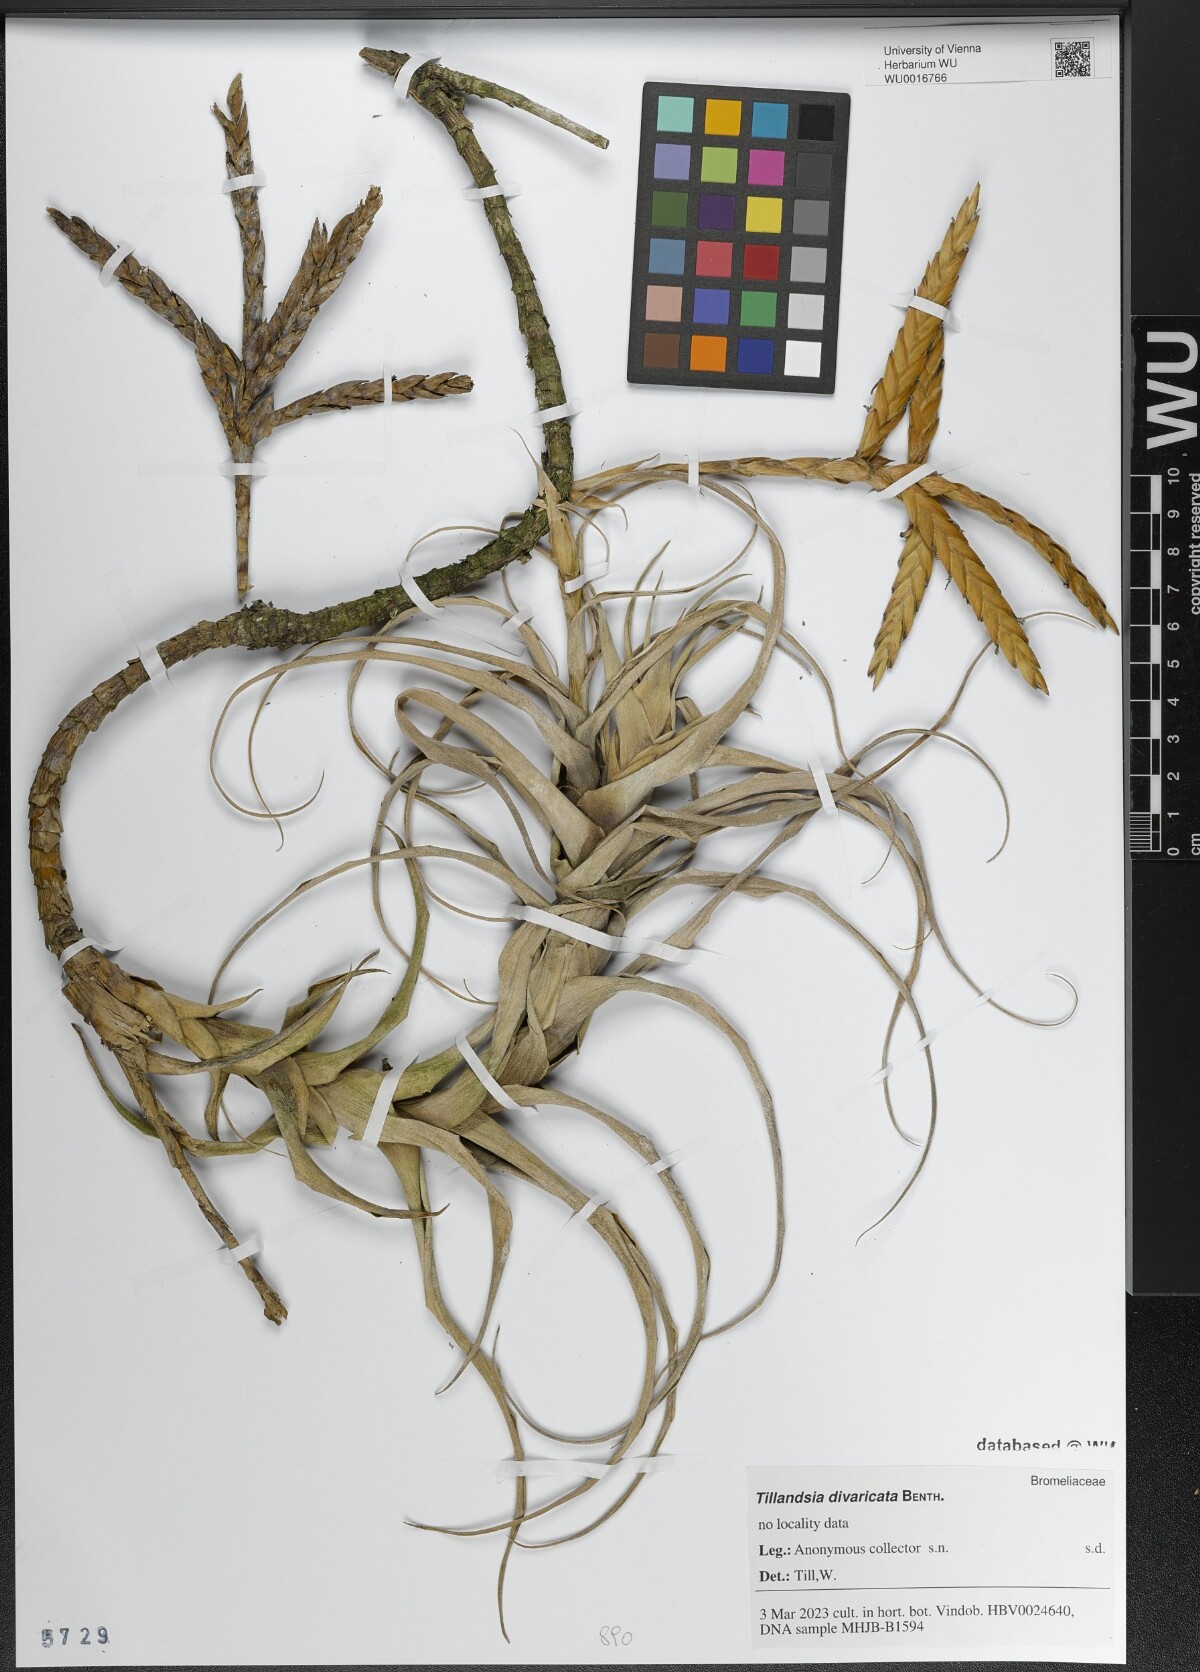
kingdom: Plantae
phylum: Tracheophyta
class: Liliopsida
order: Poales
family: Bromeliaceae
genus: Tillandsia
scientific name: Tillandsia latifolia
